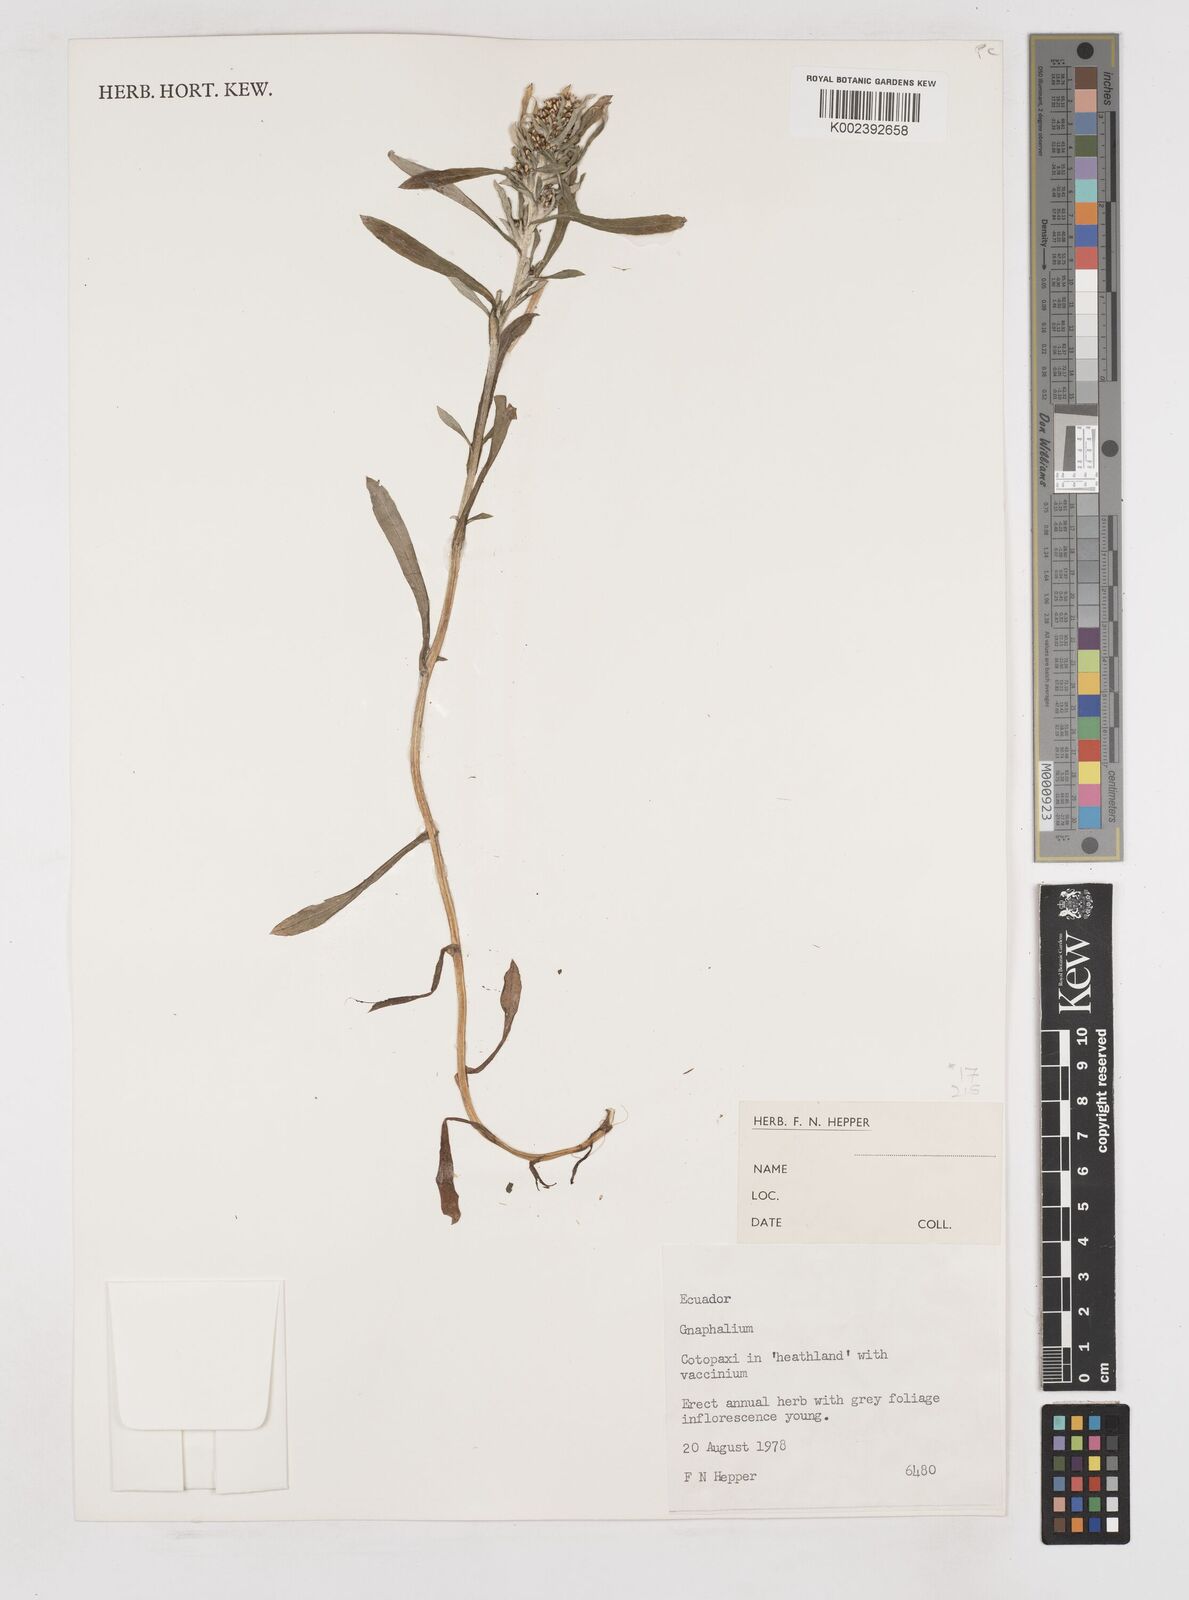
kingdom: Plantae
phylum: Tracheophyta
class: Magnoliopsida
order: Asterales
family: Asteraceae
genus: Gnaphalium
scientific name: Gnaphalium
